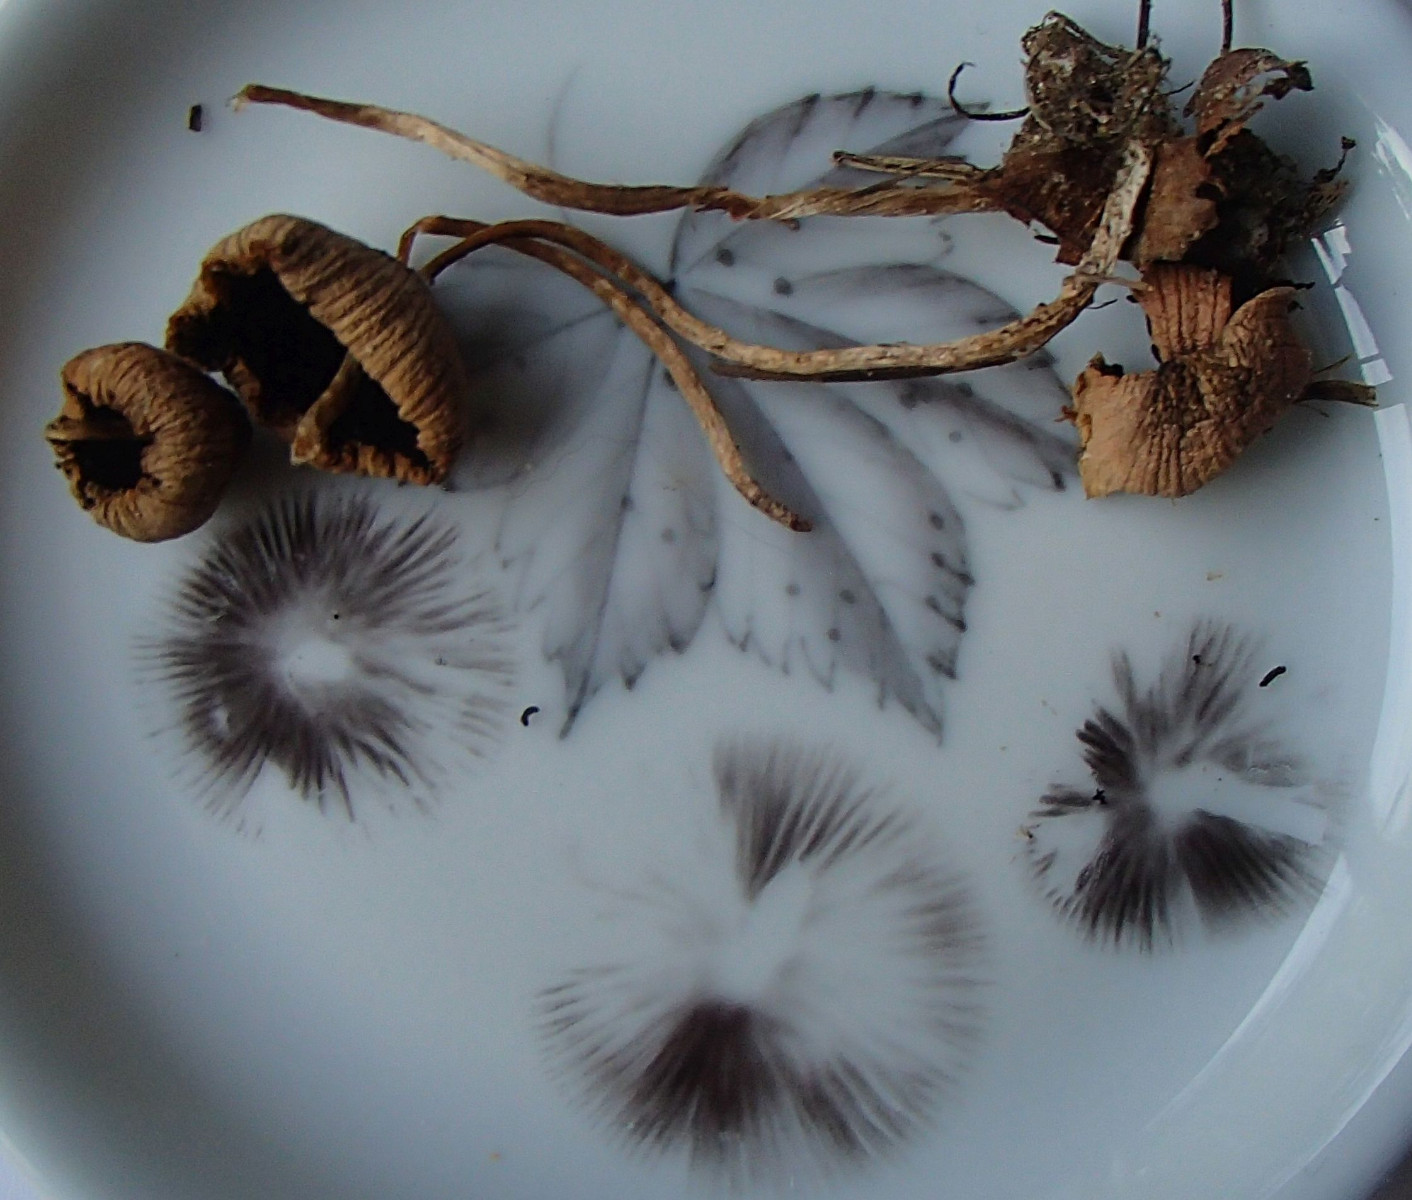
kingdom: Fungi
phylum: Basidiomycota
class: Agaricomycetes
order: Agaricales
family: Psathyrellaceae
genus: Psathyrella
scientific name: Psathyrella
